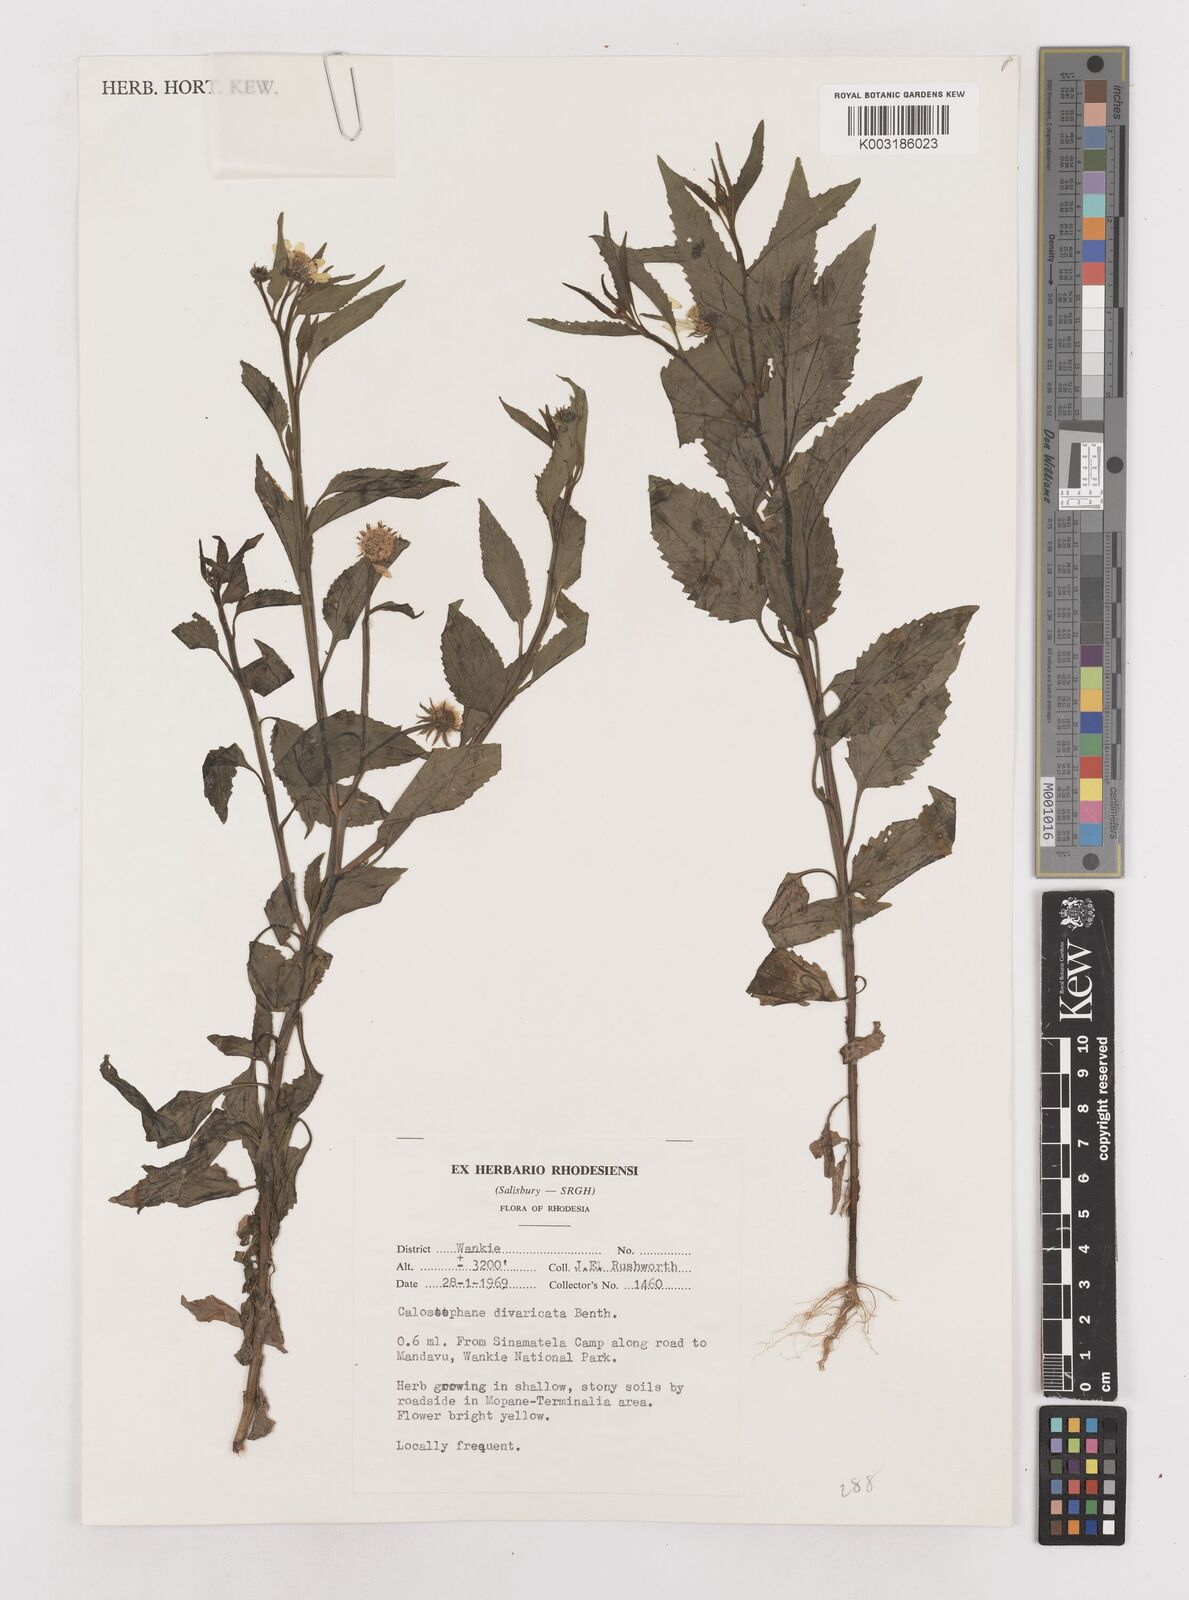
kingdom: Plantae
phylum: Tracheophyta
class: Magnoliopsida
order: Asterales
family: Asteraceae
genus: Calostephane
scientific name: Calostephane divaricata
